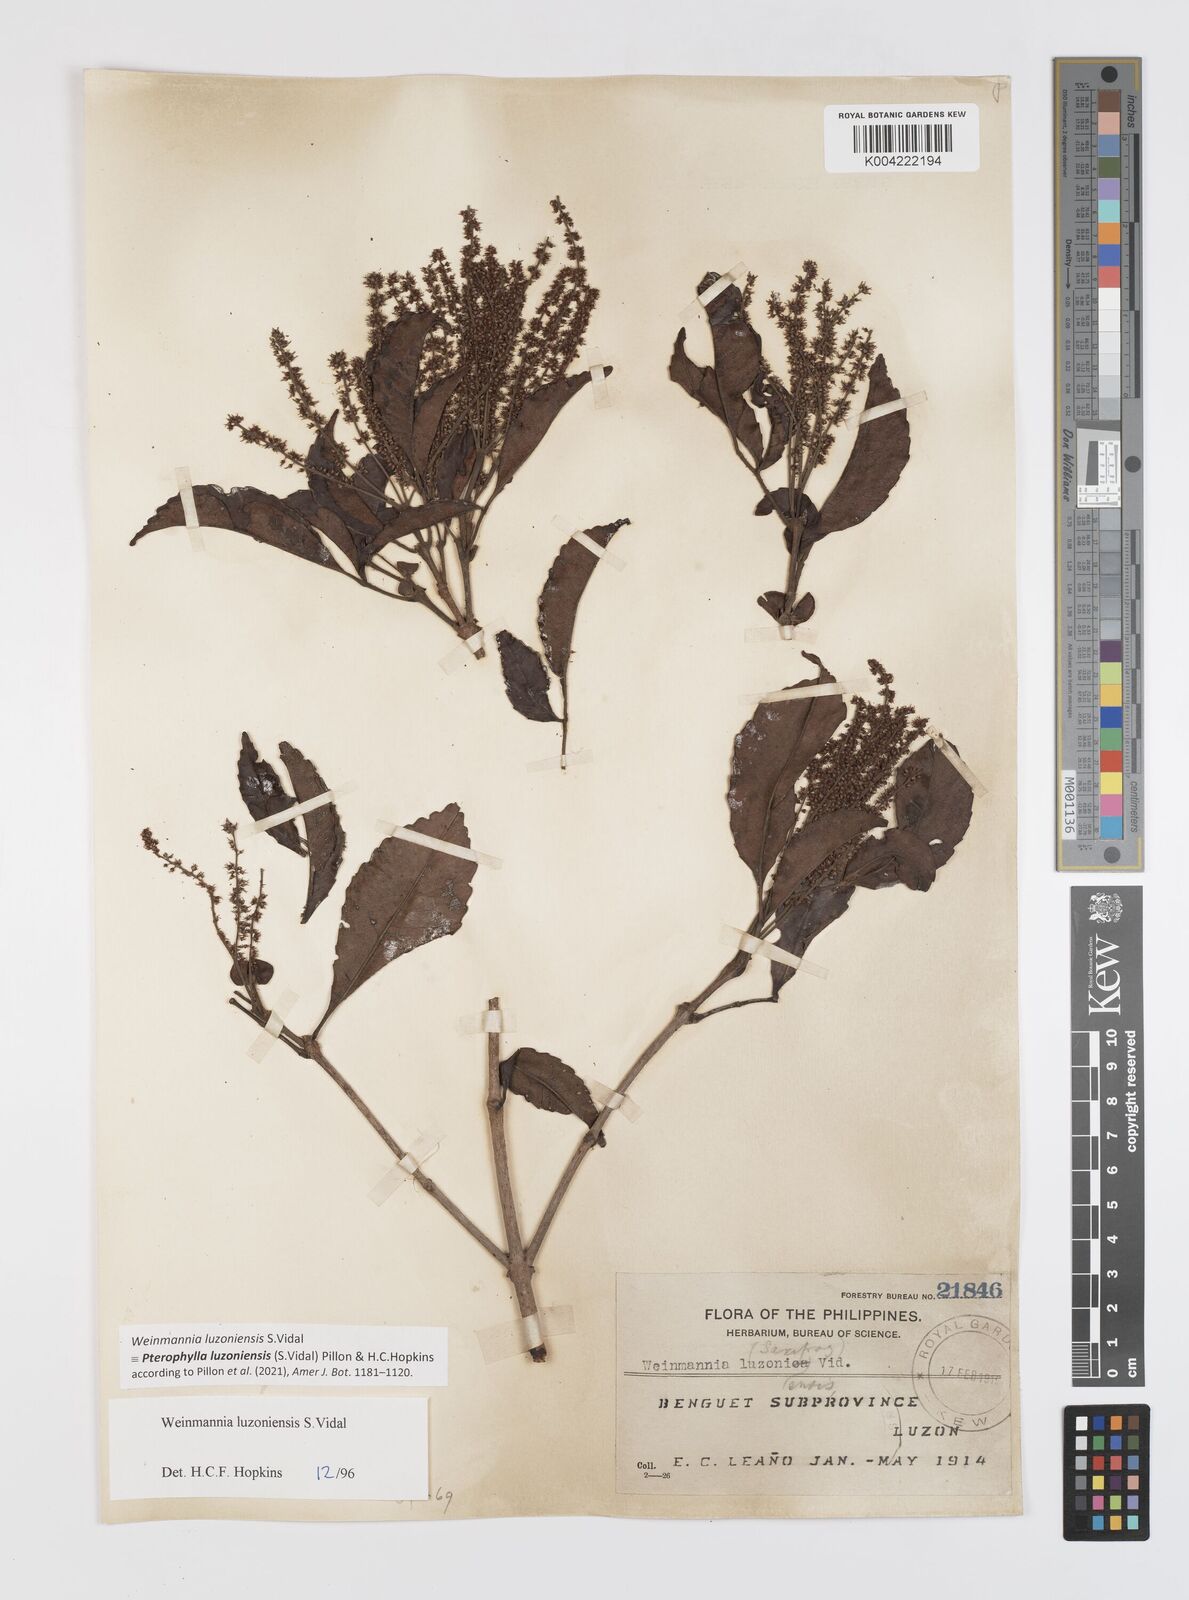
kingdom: Plantae
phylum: Tracheophyta
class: Magnoliopsida
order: Oxalidales
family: Cunoniaceae
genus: Pterophylla
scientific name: Pterophylla luzoniensis
